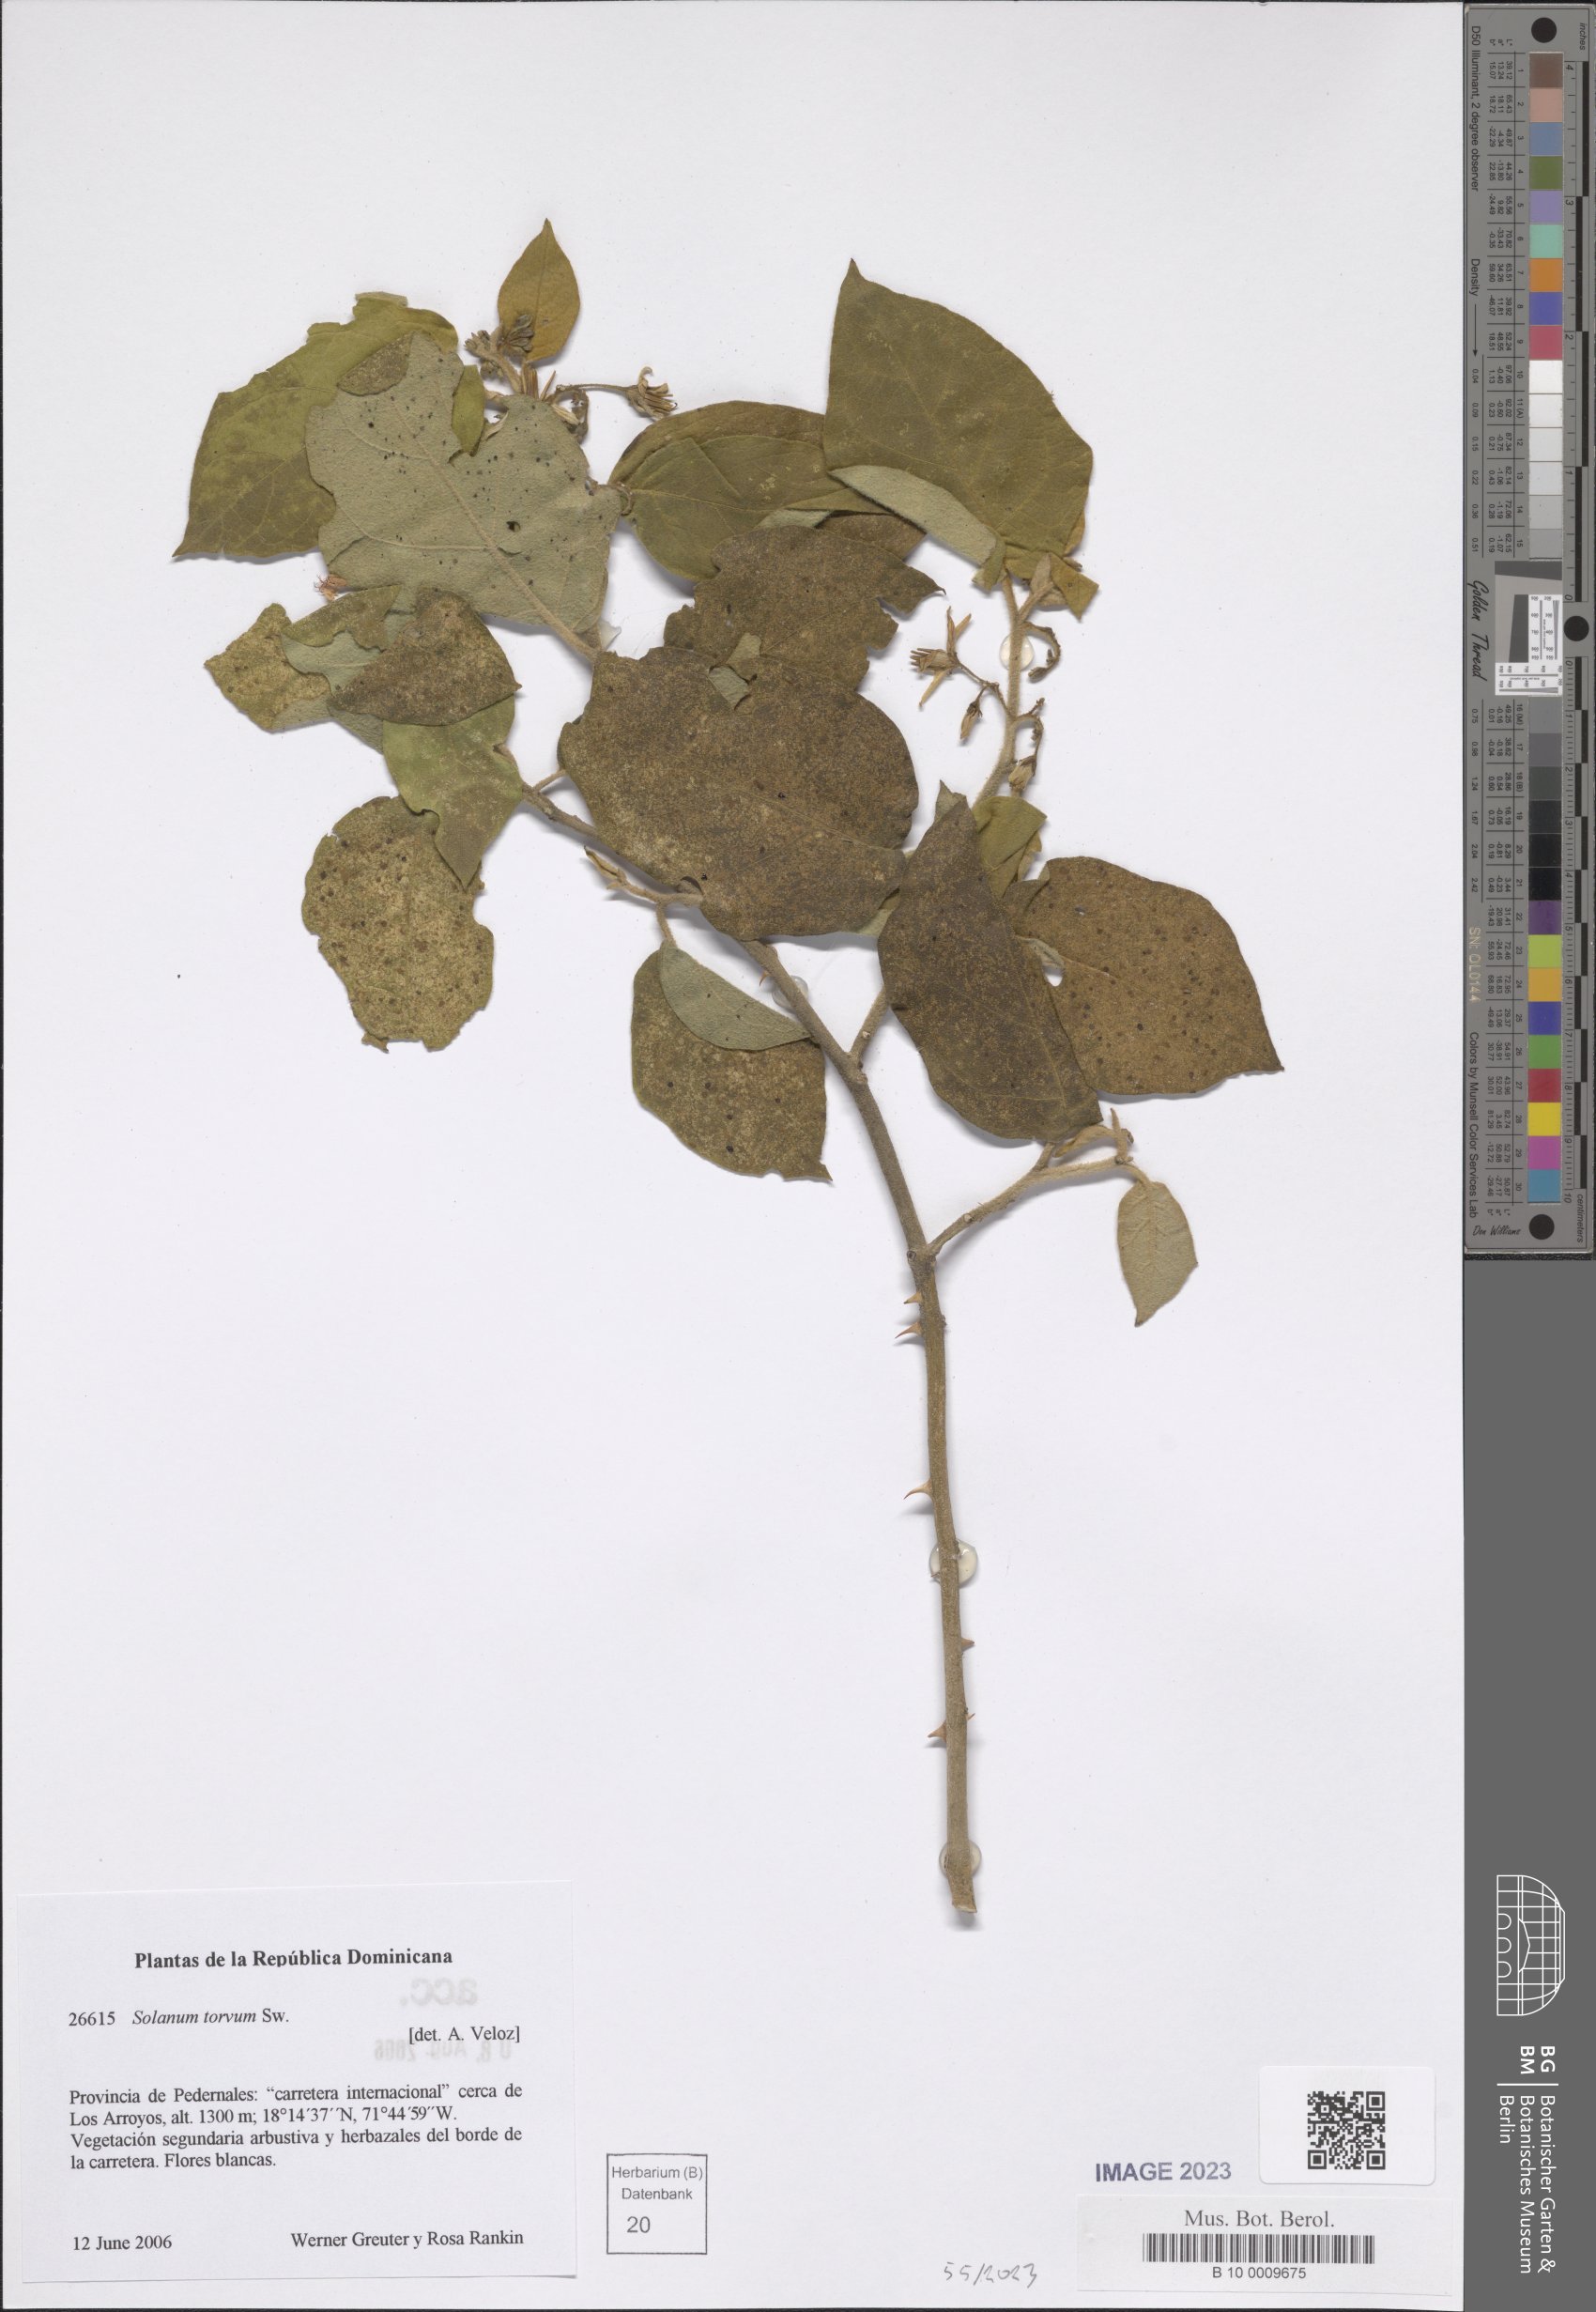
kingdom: Plantae
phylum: Tracheophyta
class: Magnoliopsida
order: Solanales
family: Solanaceae
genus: Solanum
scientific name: Solanum torvum
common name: Turkey berry
